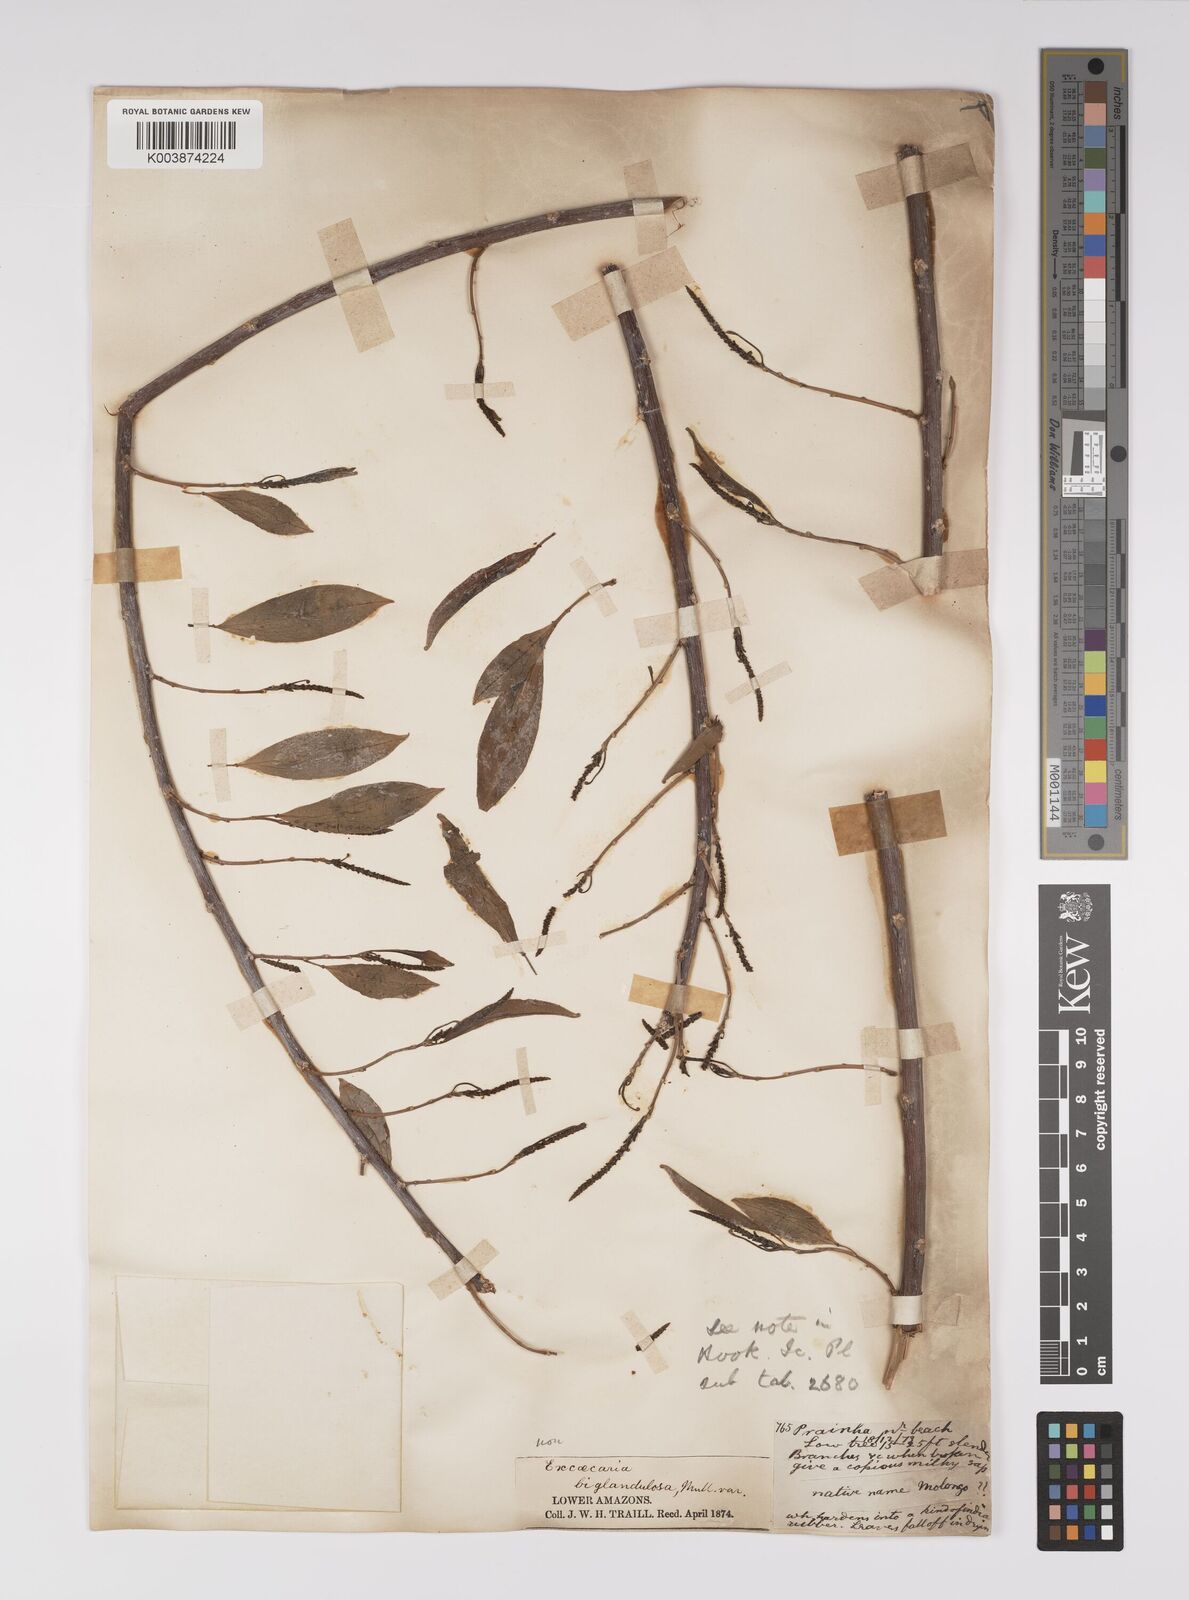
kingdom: Plantae
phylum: Tracheophyta
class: Magnoliopsida
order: Malpighiales
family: Euphorbiaceae
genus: Sapium
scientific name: Sapium
